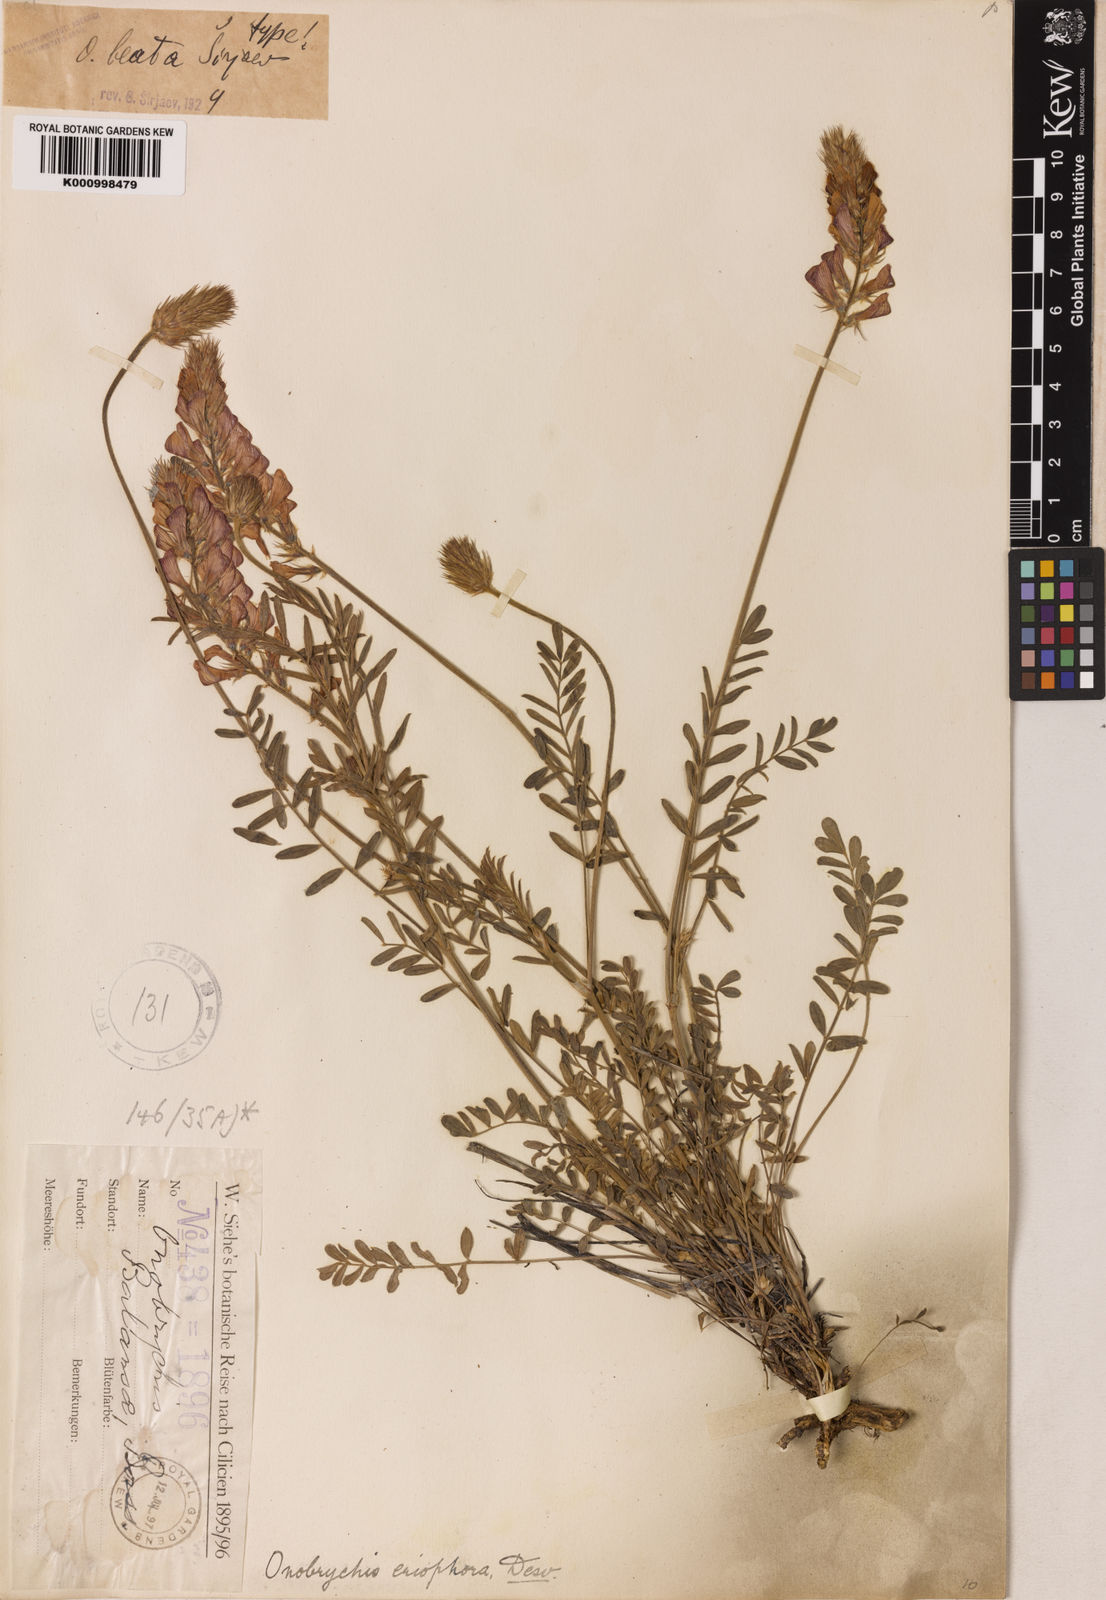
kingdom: Plantae
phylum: Tracheophyta
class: Magnoliopsida
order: Fabales
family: Fabaceae
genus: Onobrychis
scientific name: Onobrychis
